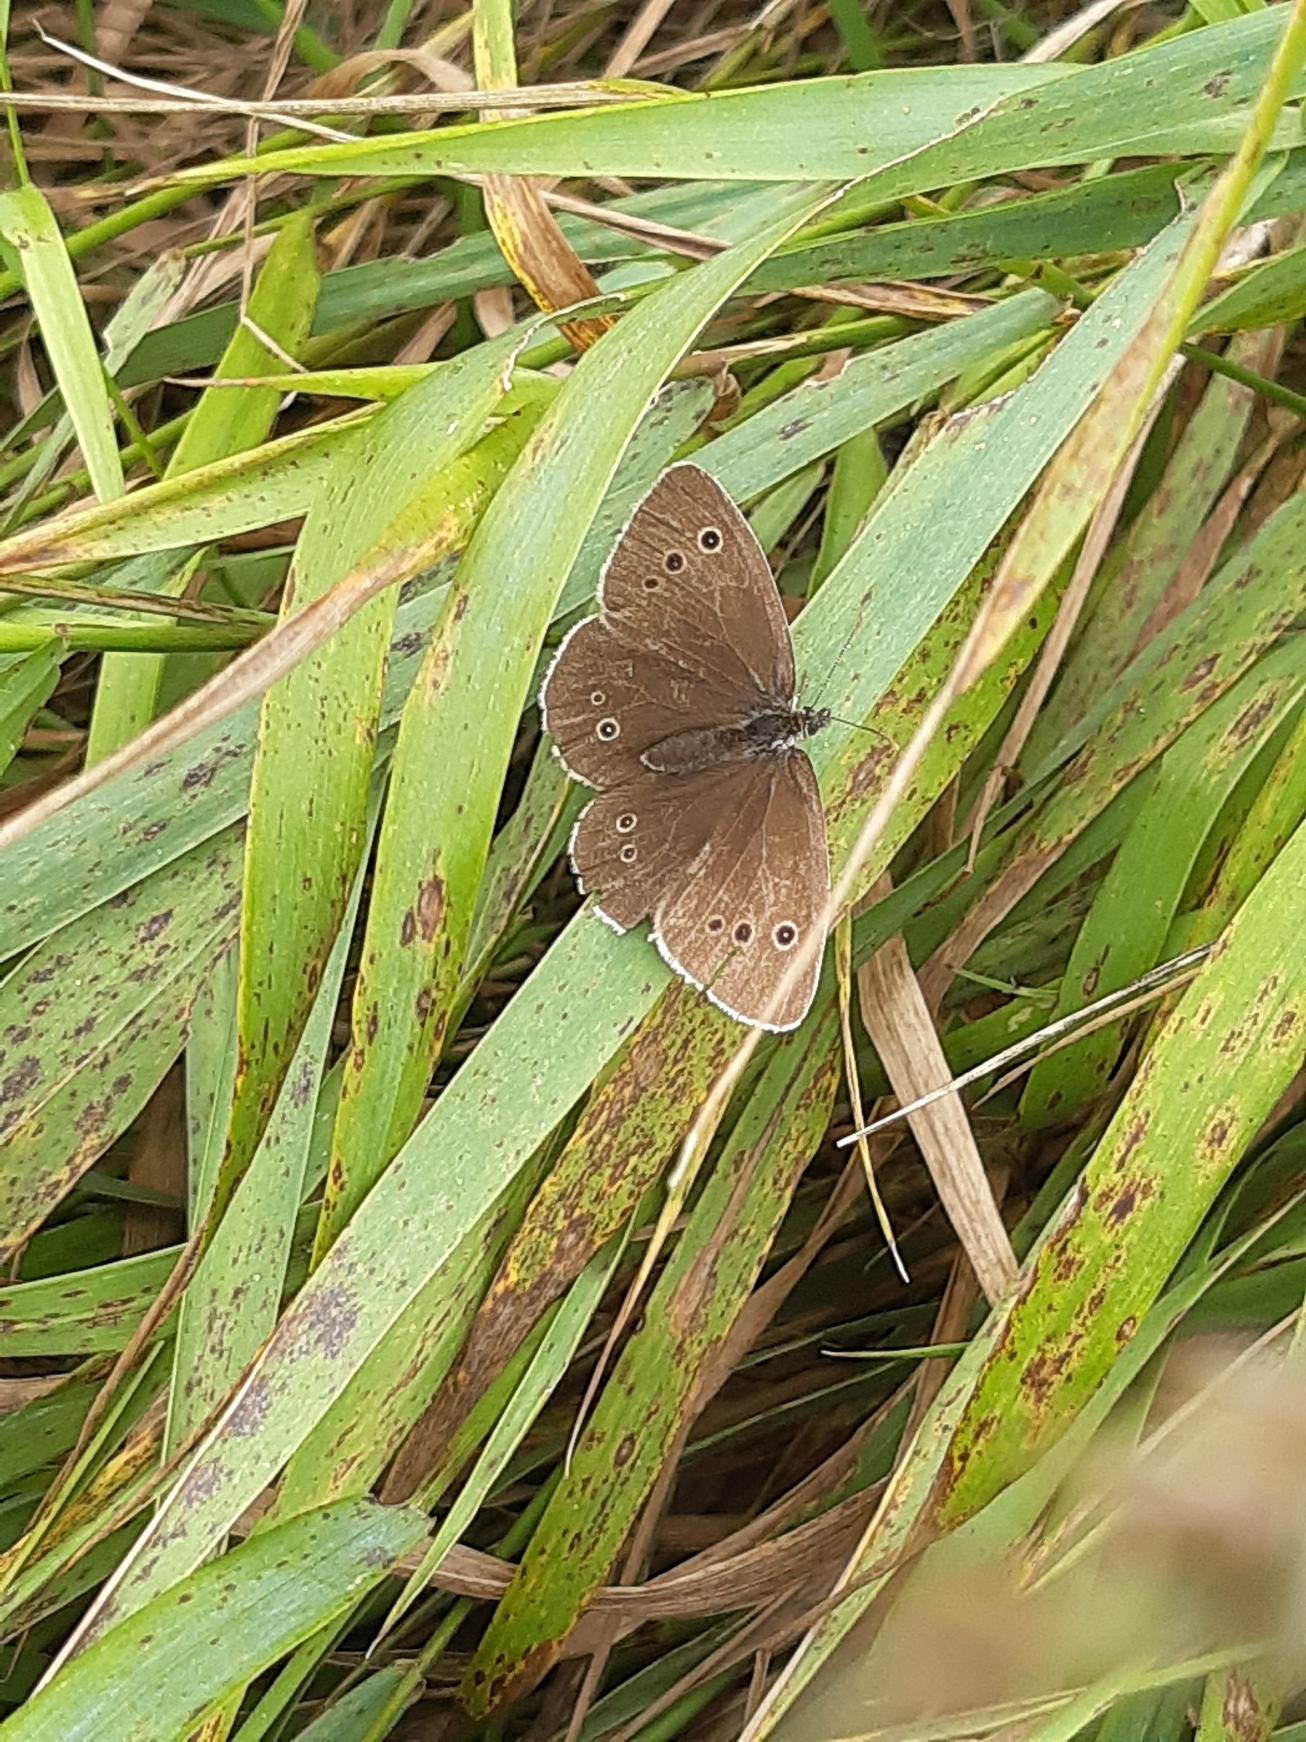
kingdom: Animalia
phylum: Arthropoda
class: Insecta
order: Lepidoptera
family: Nymphalidae
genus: Aphantopus
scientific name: Aphantopus hyperantus
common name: Engrandøje
